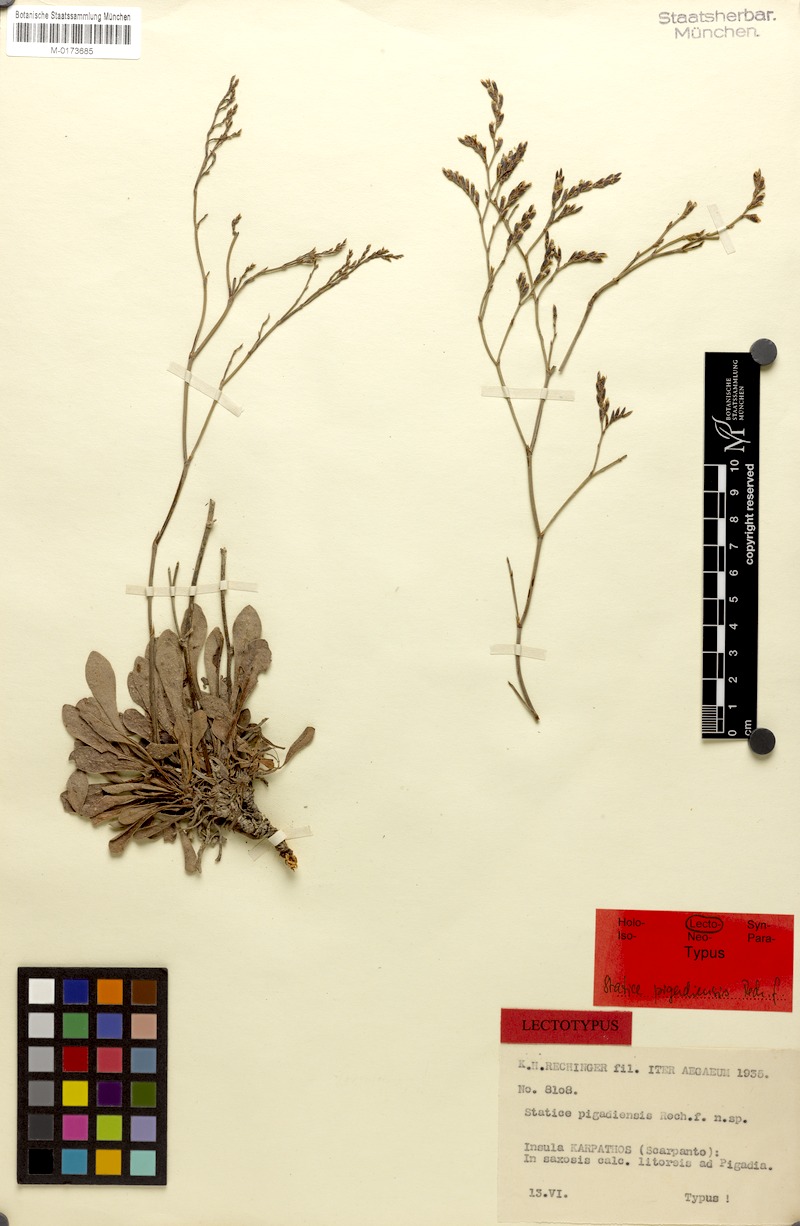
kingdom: Plantae
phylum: Tracheophyta
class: Magnoliopsida
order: Caryophyllales
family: Plumbaginaceae
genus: Limonium
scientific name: Limonium pigadiense
